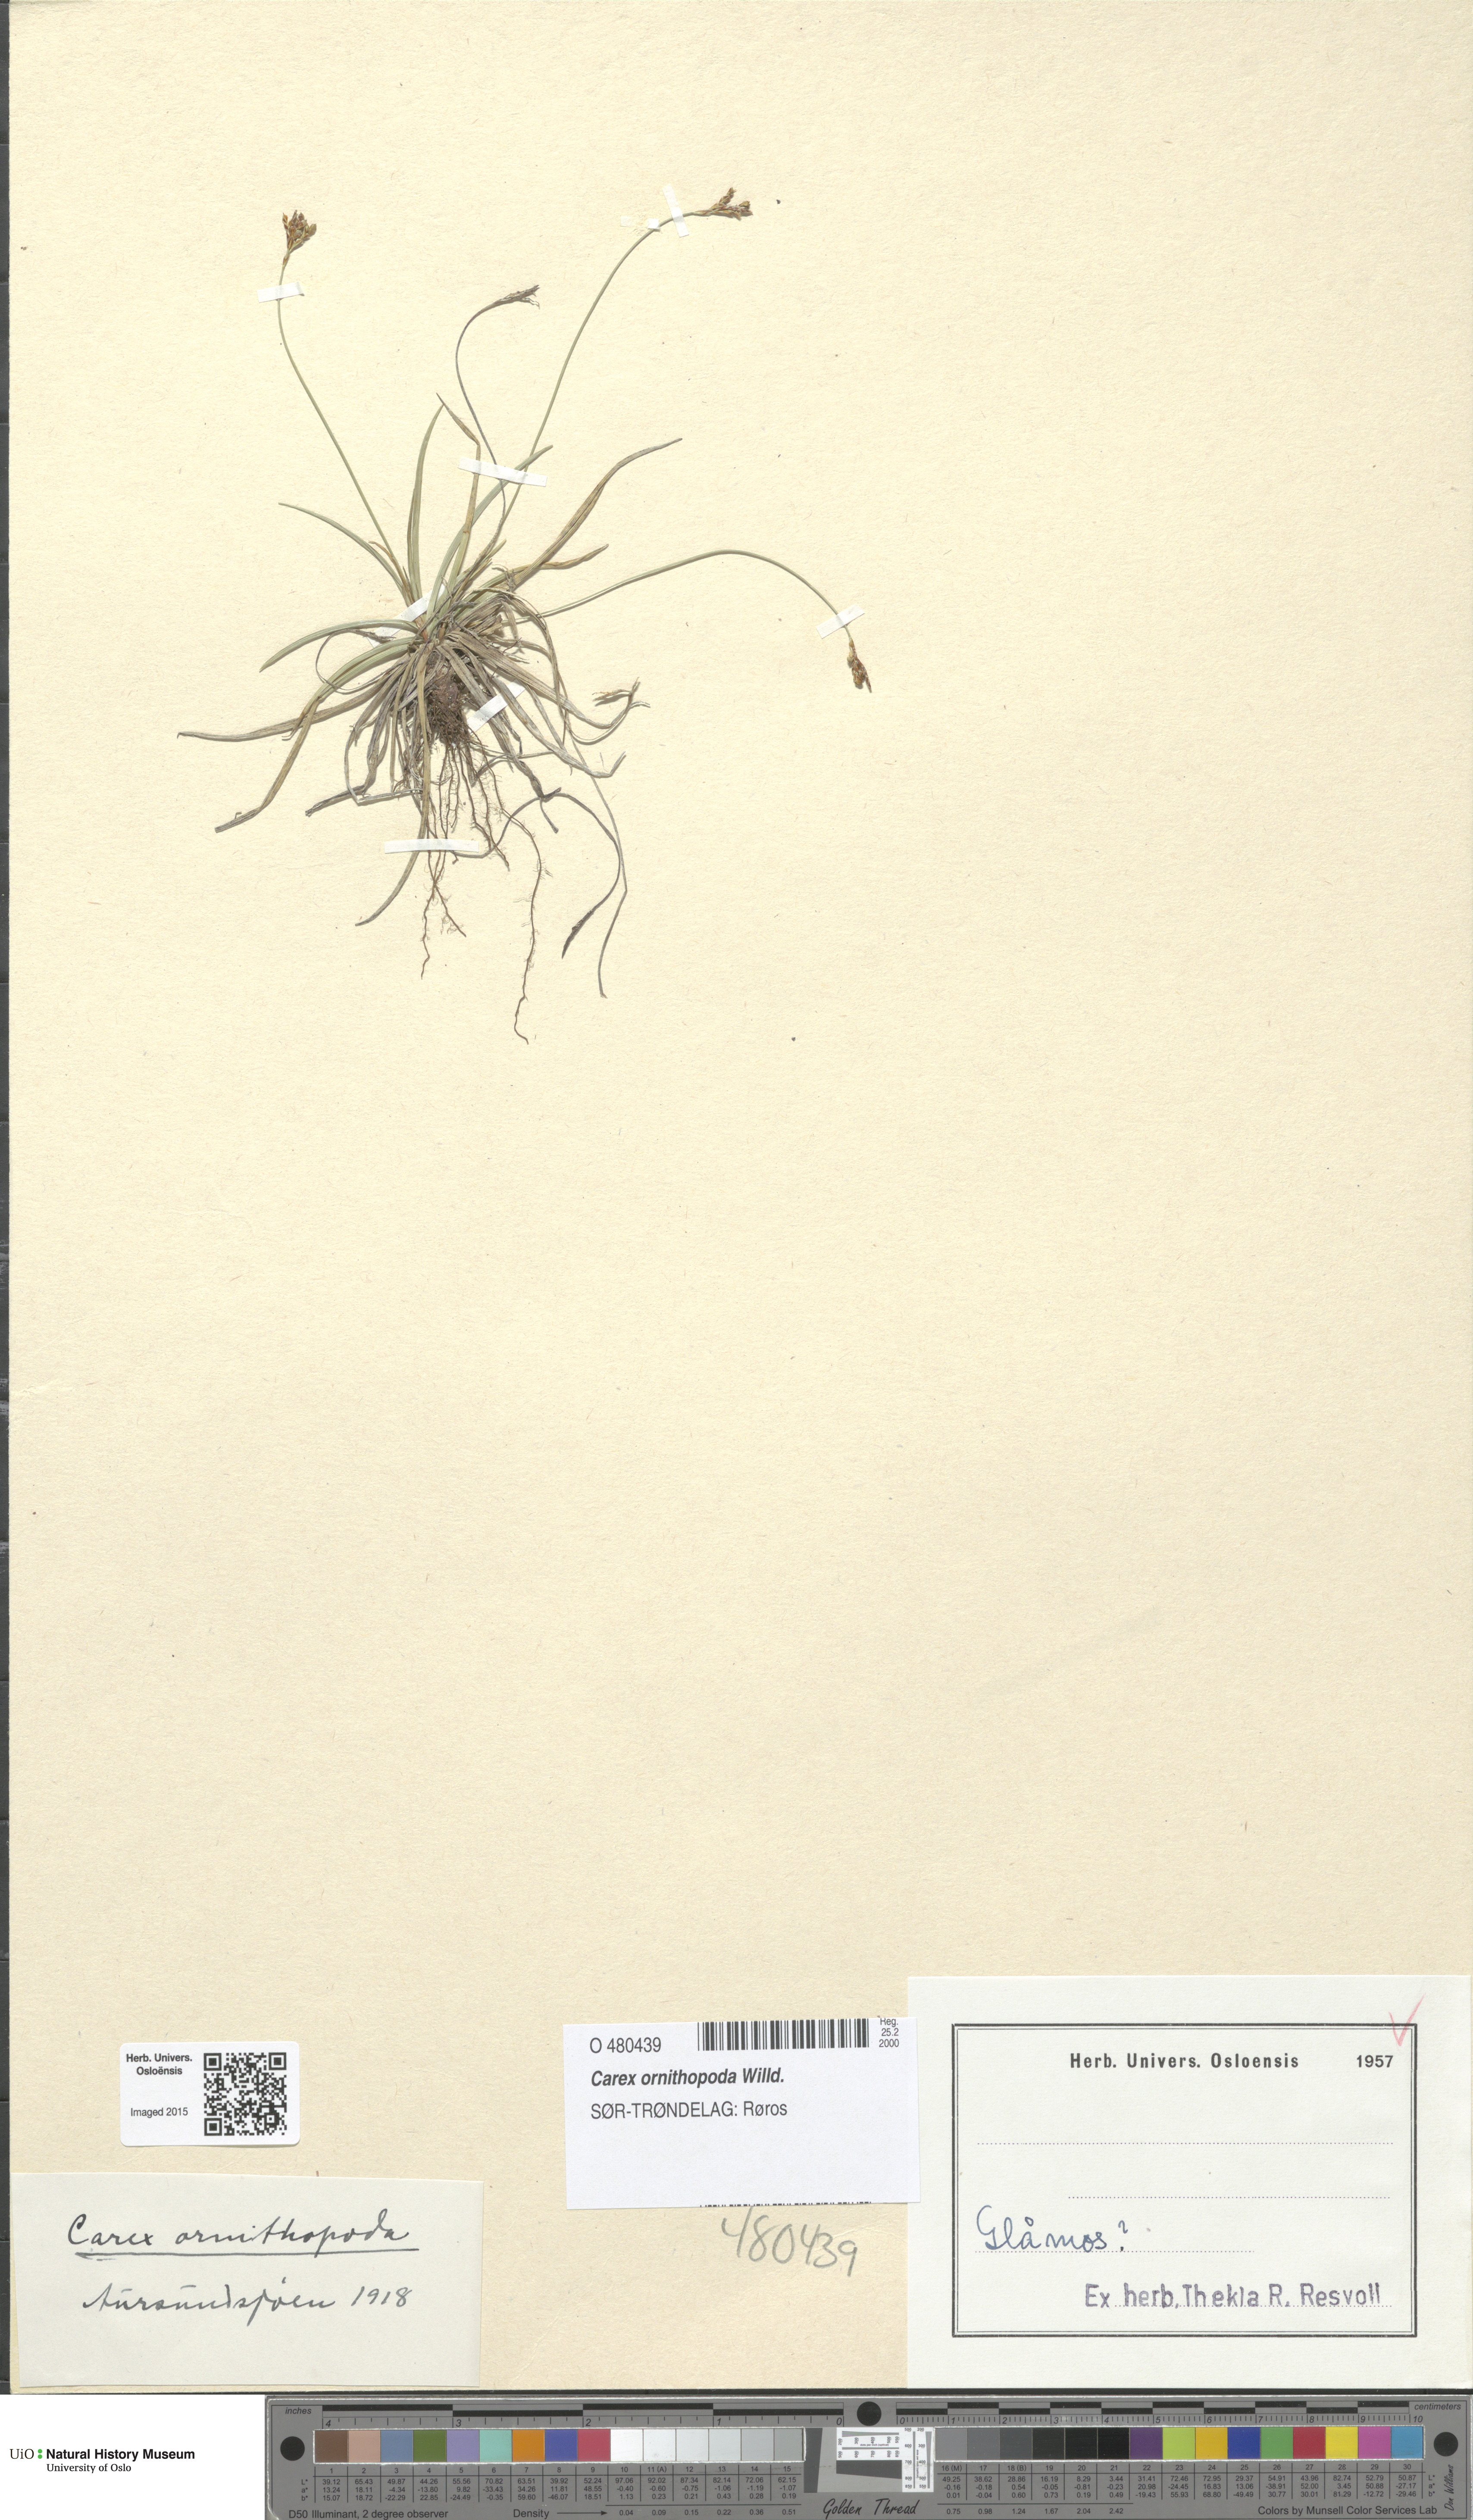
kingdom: Plantae
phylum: Tracheophyta
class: Liliopsida
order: Poales
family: Cyperaceae
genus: Carex
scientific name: Carex ornithopoda
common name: Bird's-foot sedge
